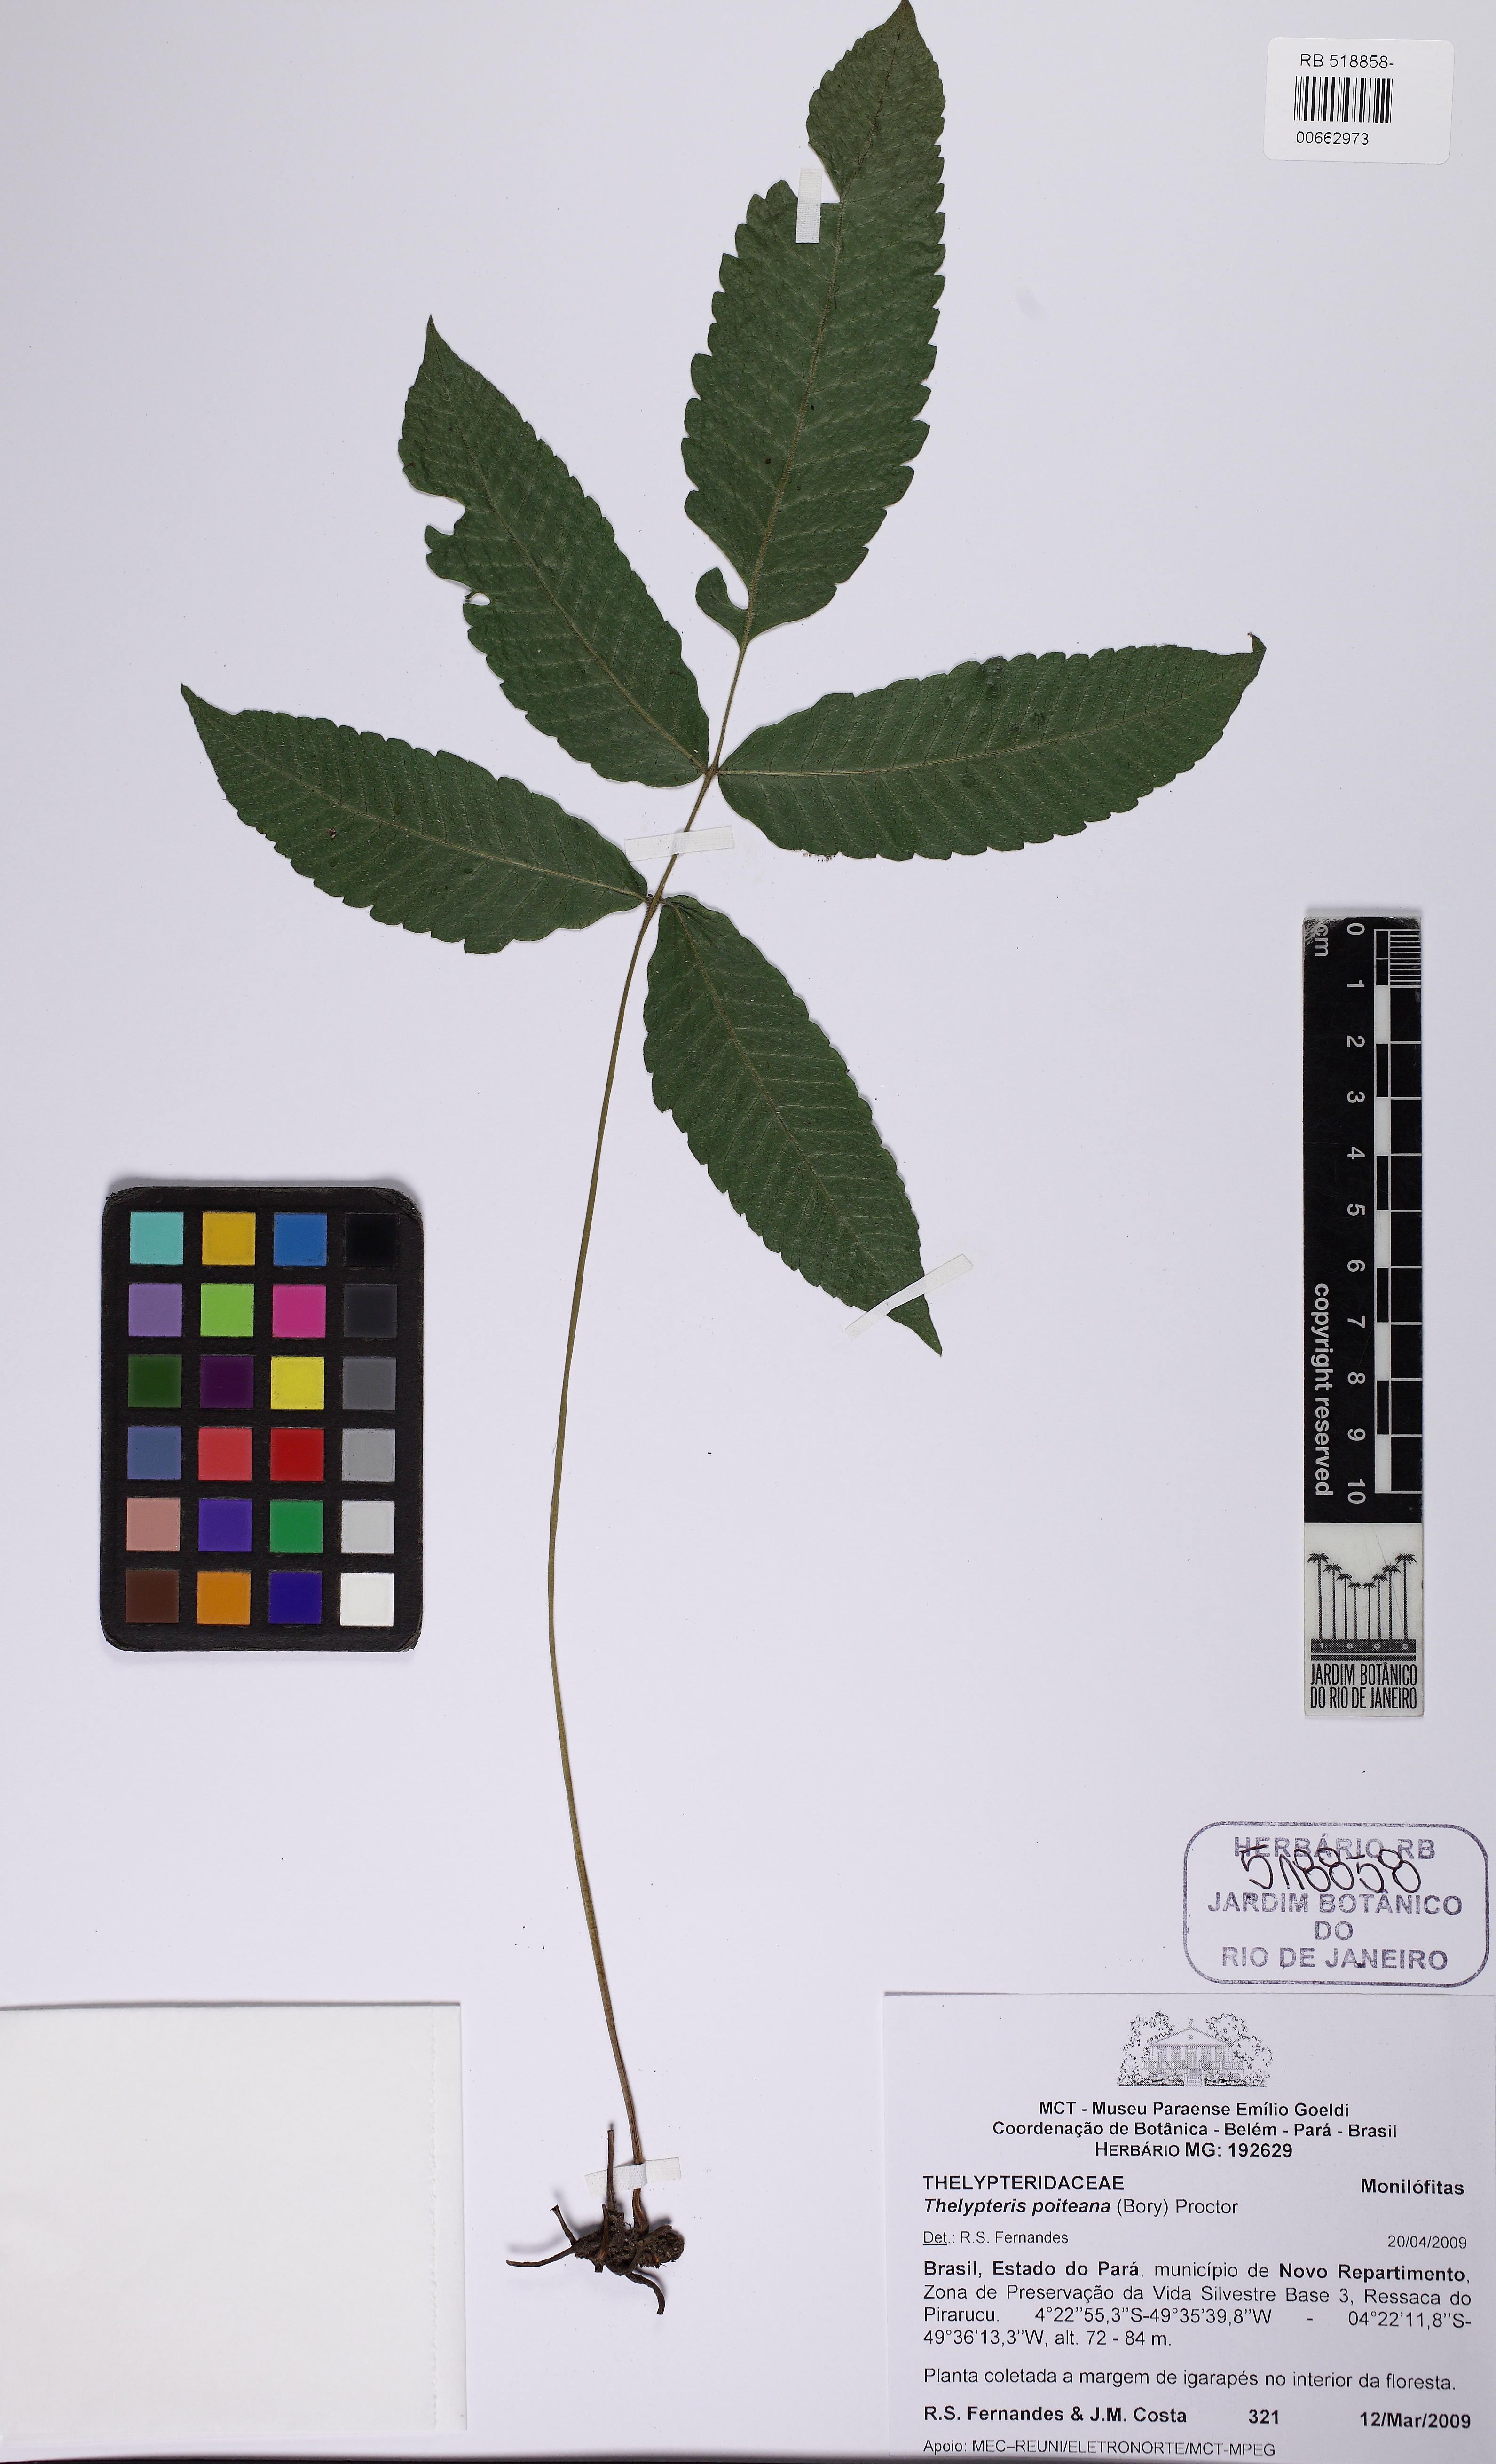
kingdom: Plantae
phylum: Tracheophyta
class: Polypodiopsida
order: Polypodiales
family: Thelypteridaceae
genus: Goniopteris
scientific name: Goniopteris poiteana
